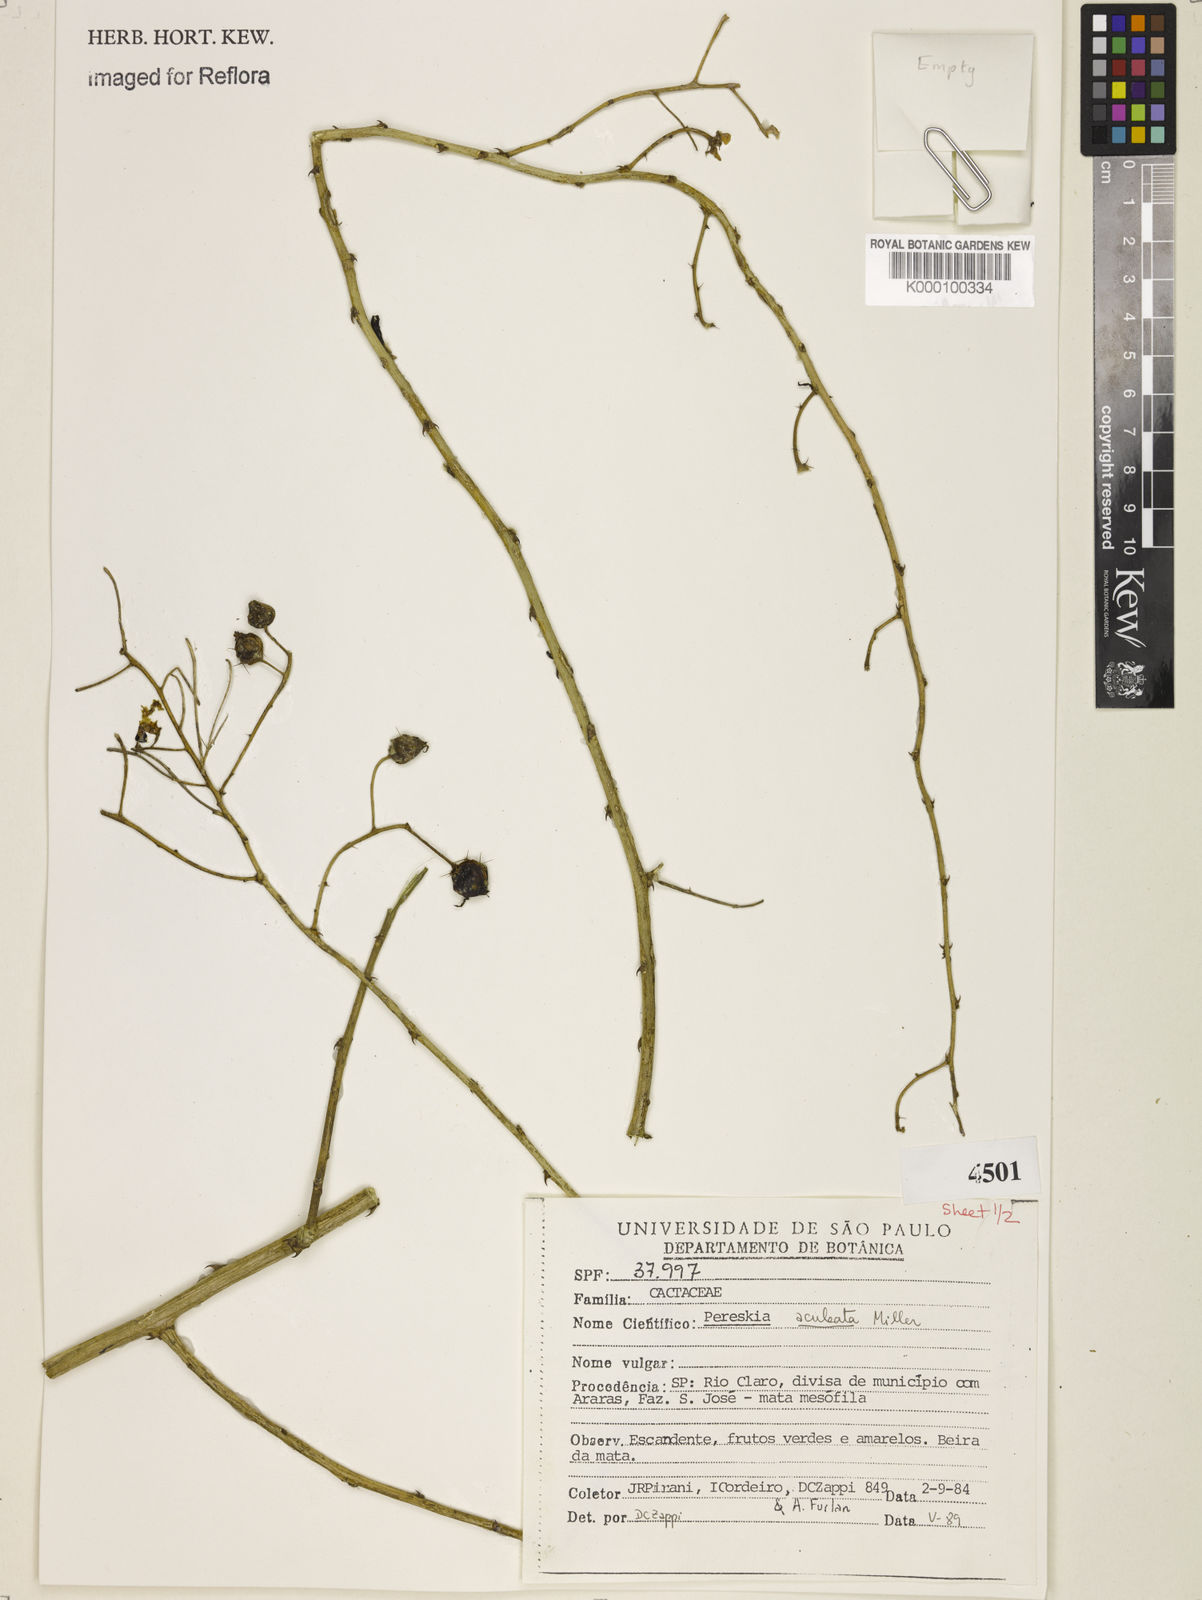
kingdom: Plantae
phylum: Tracheophyta
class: Magnoliopsida
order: Caryophyllales
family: Cactaceae
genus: Pereskia
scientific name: Pereskia aculeata
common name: Barbados gooseberry
